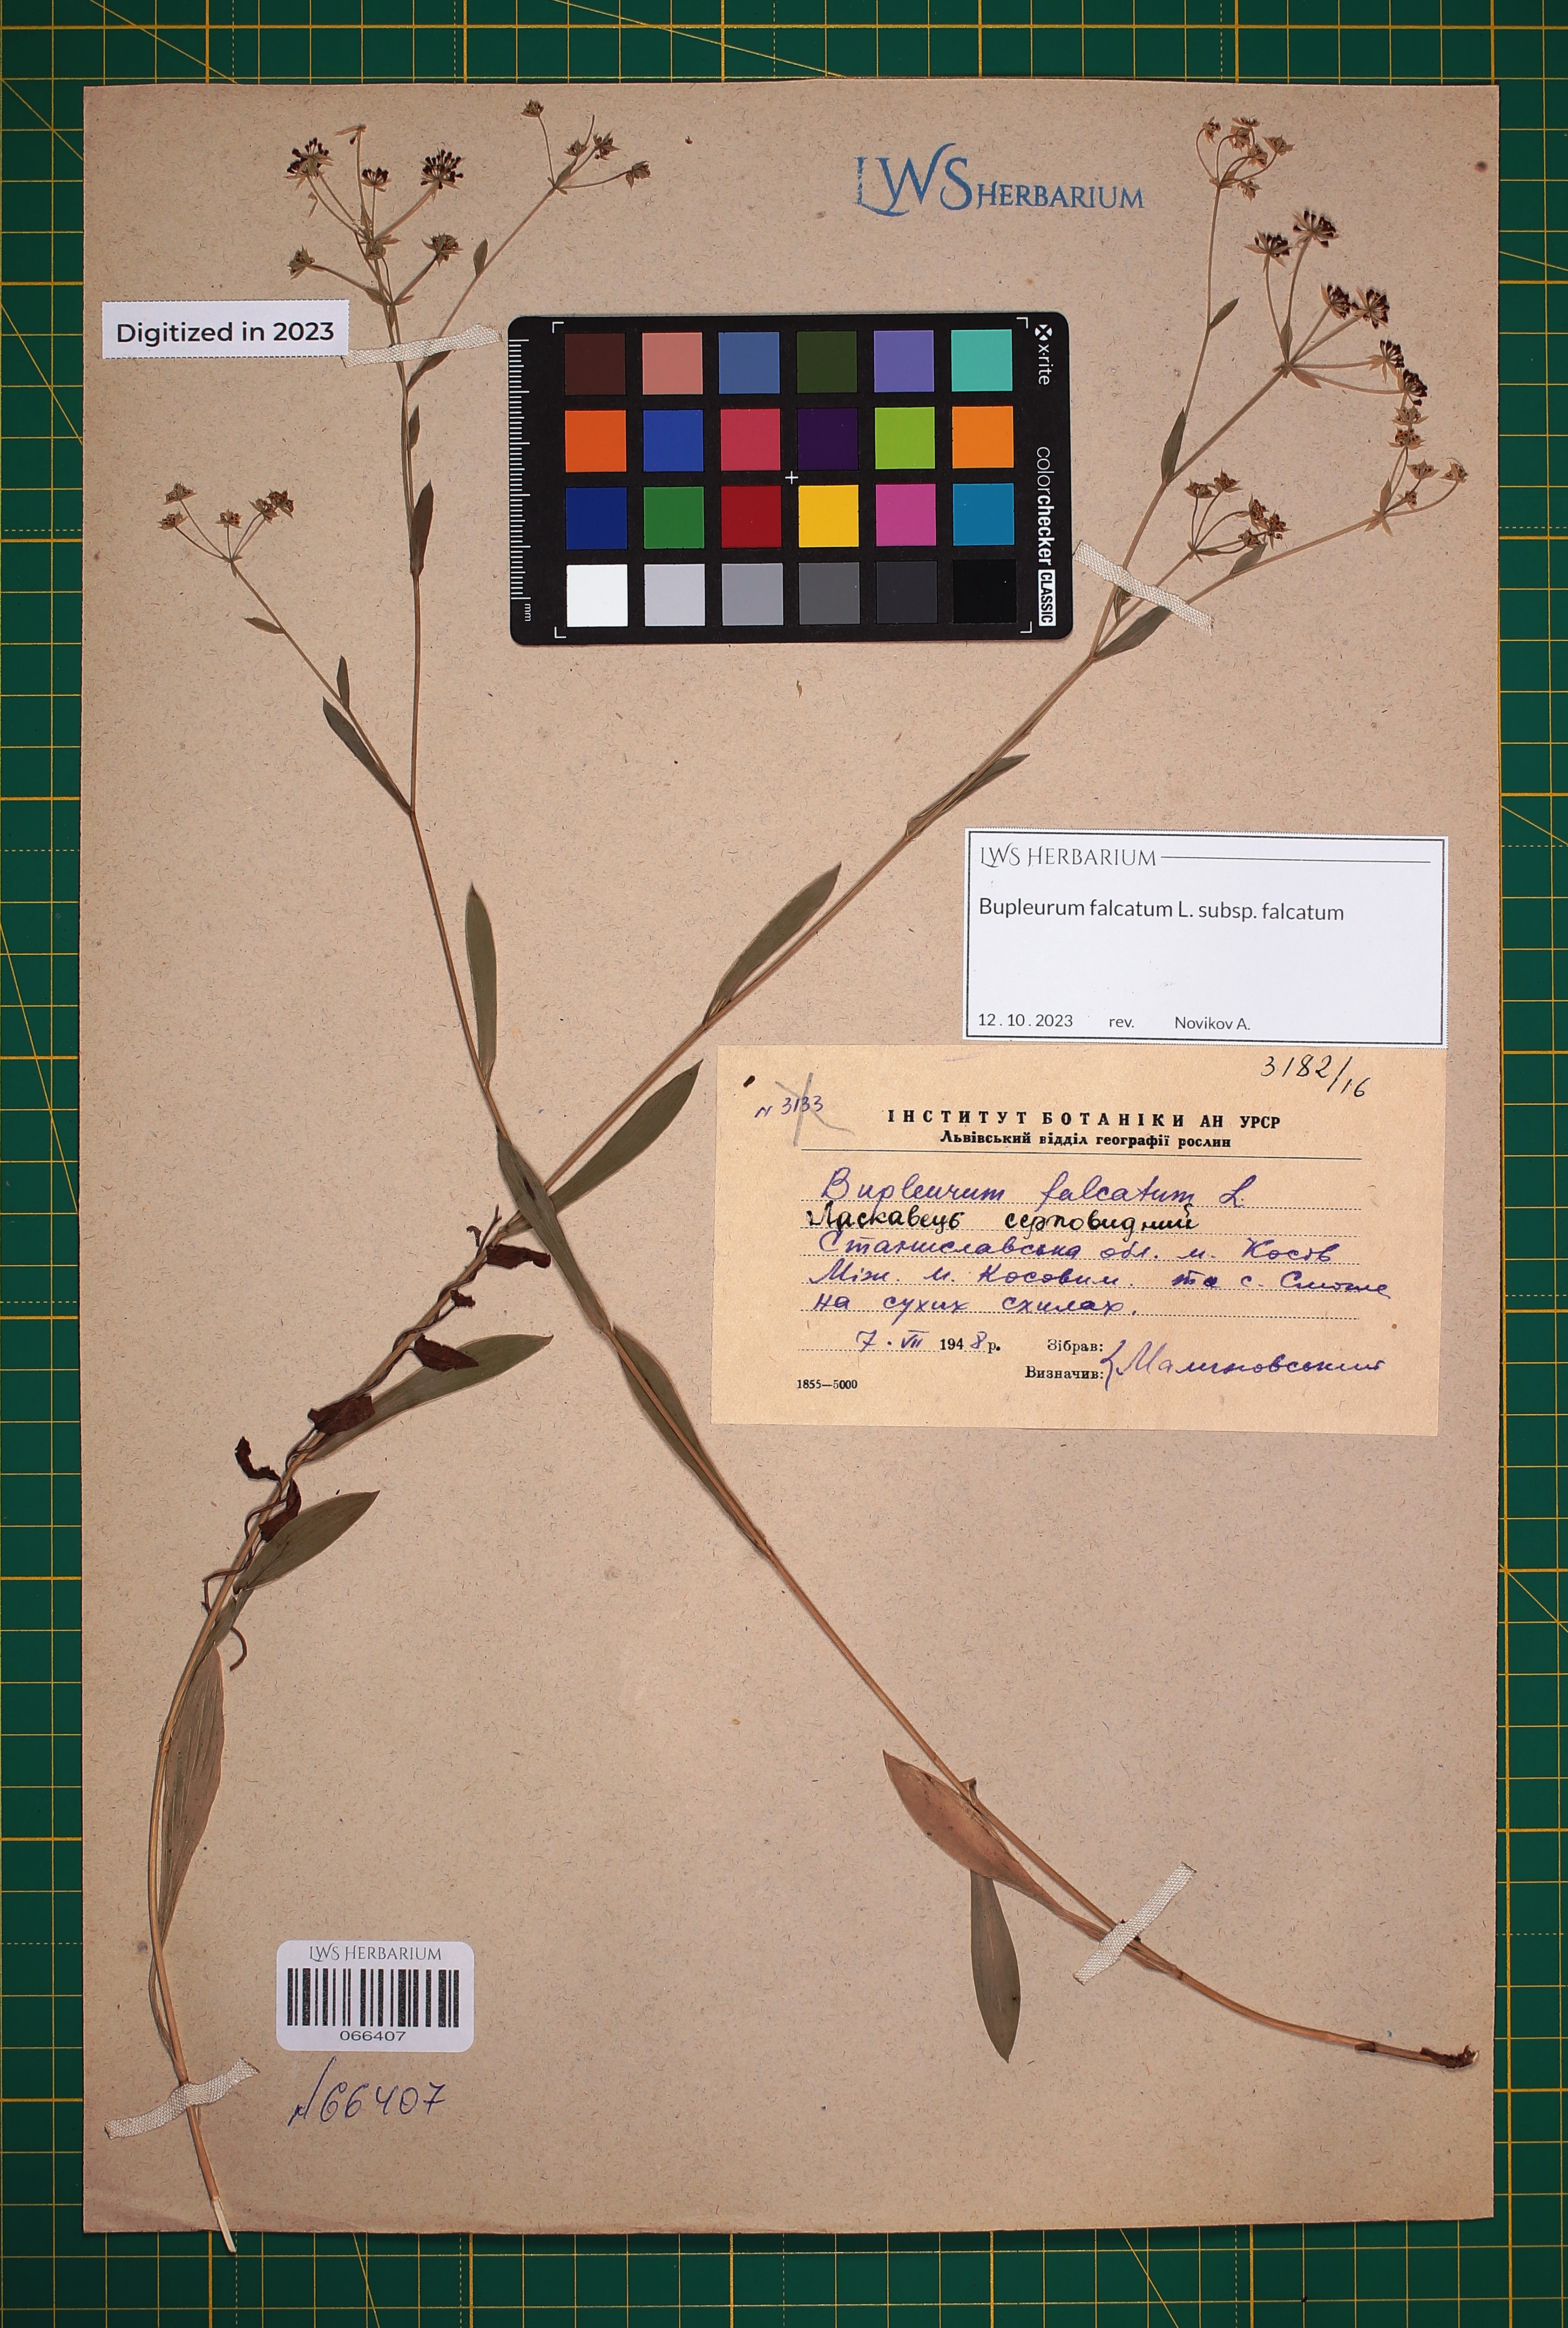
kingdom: Plantae
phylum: Tracheophyta
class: Magnoliopsida
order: Apiales
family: Apiaceae
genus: Bupleurum
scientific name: Bupleurum falcatum
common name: Sickle-leaved hare's-ear
